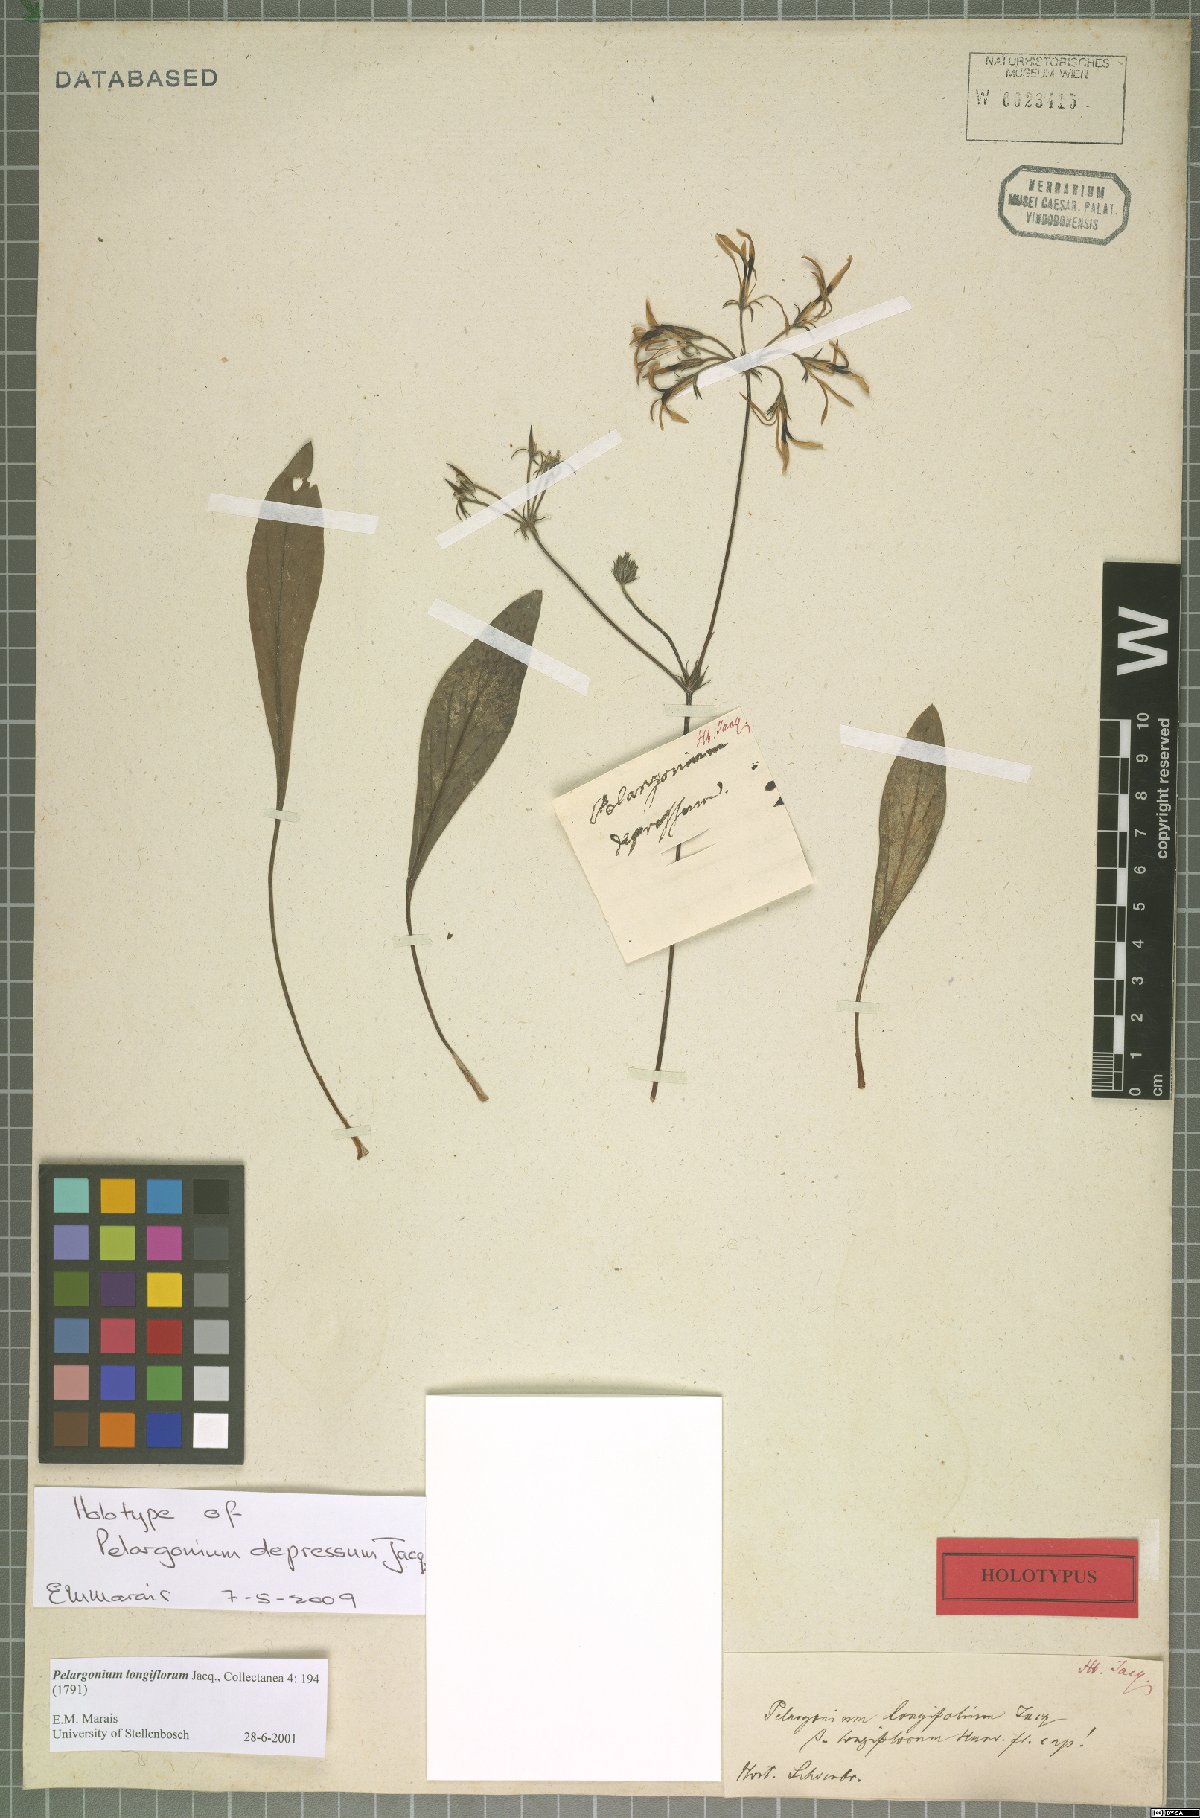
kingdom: Plantae
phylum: Tracheophyta
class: Magnoliopsida
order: Geraniales
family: Geraniaceae
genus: Pelargonium
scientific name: Pelargonium longiflorum
